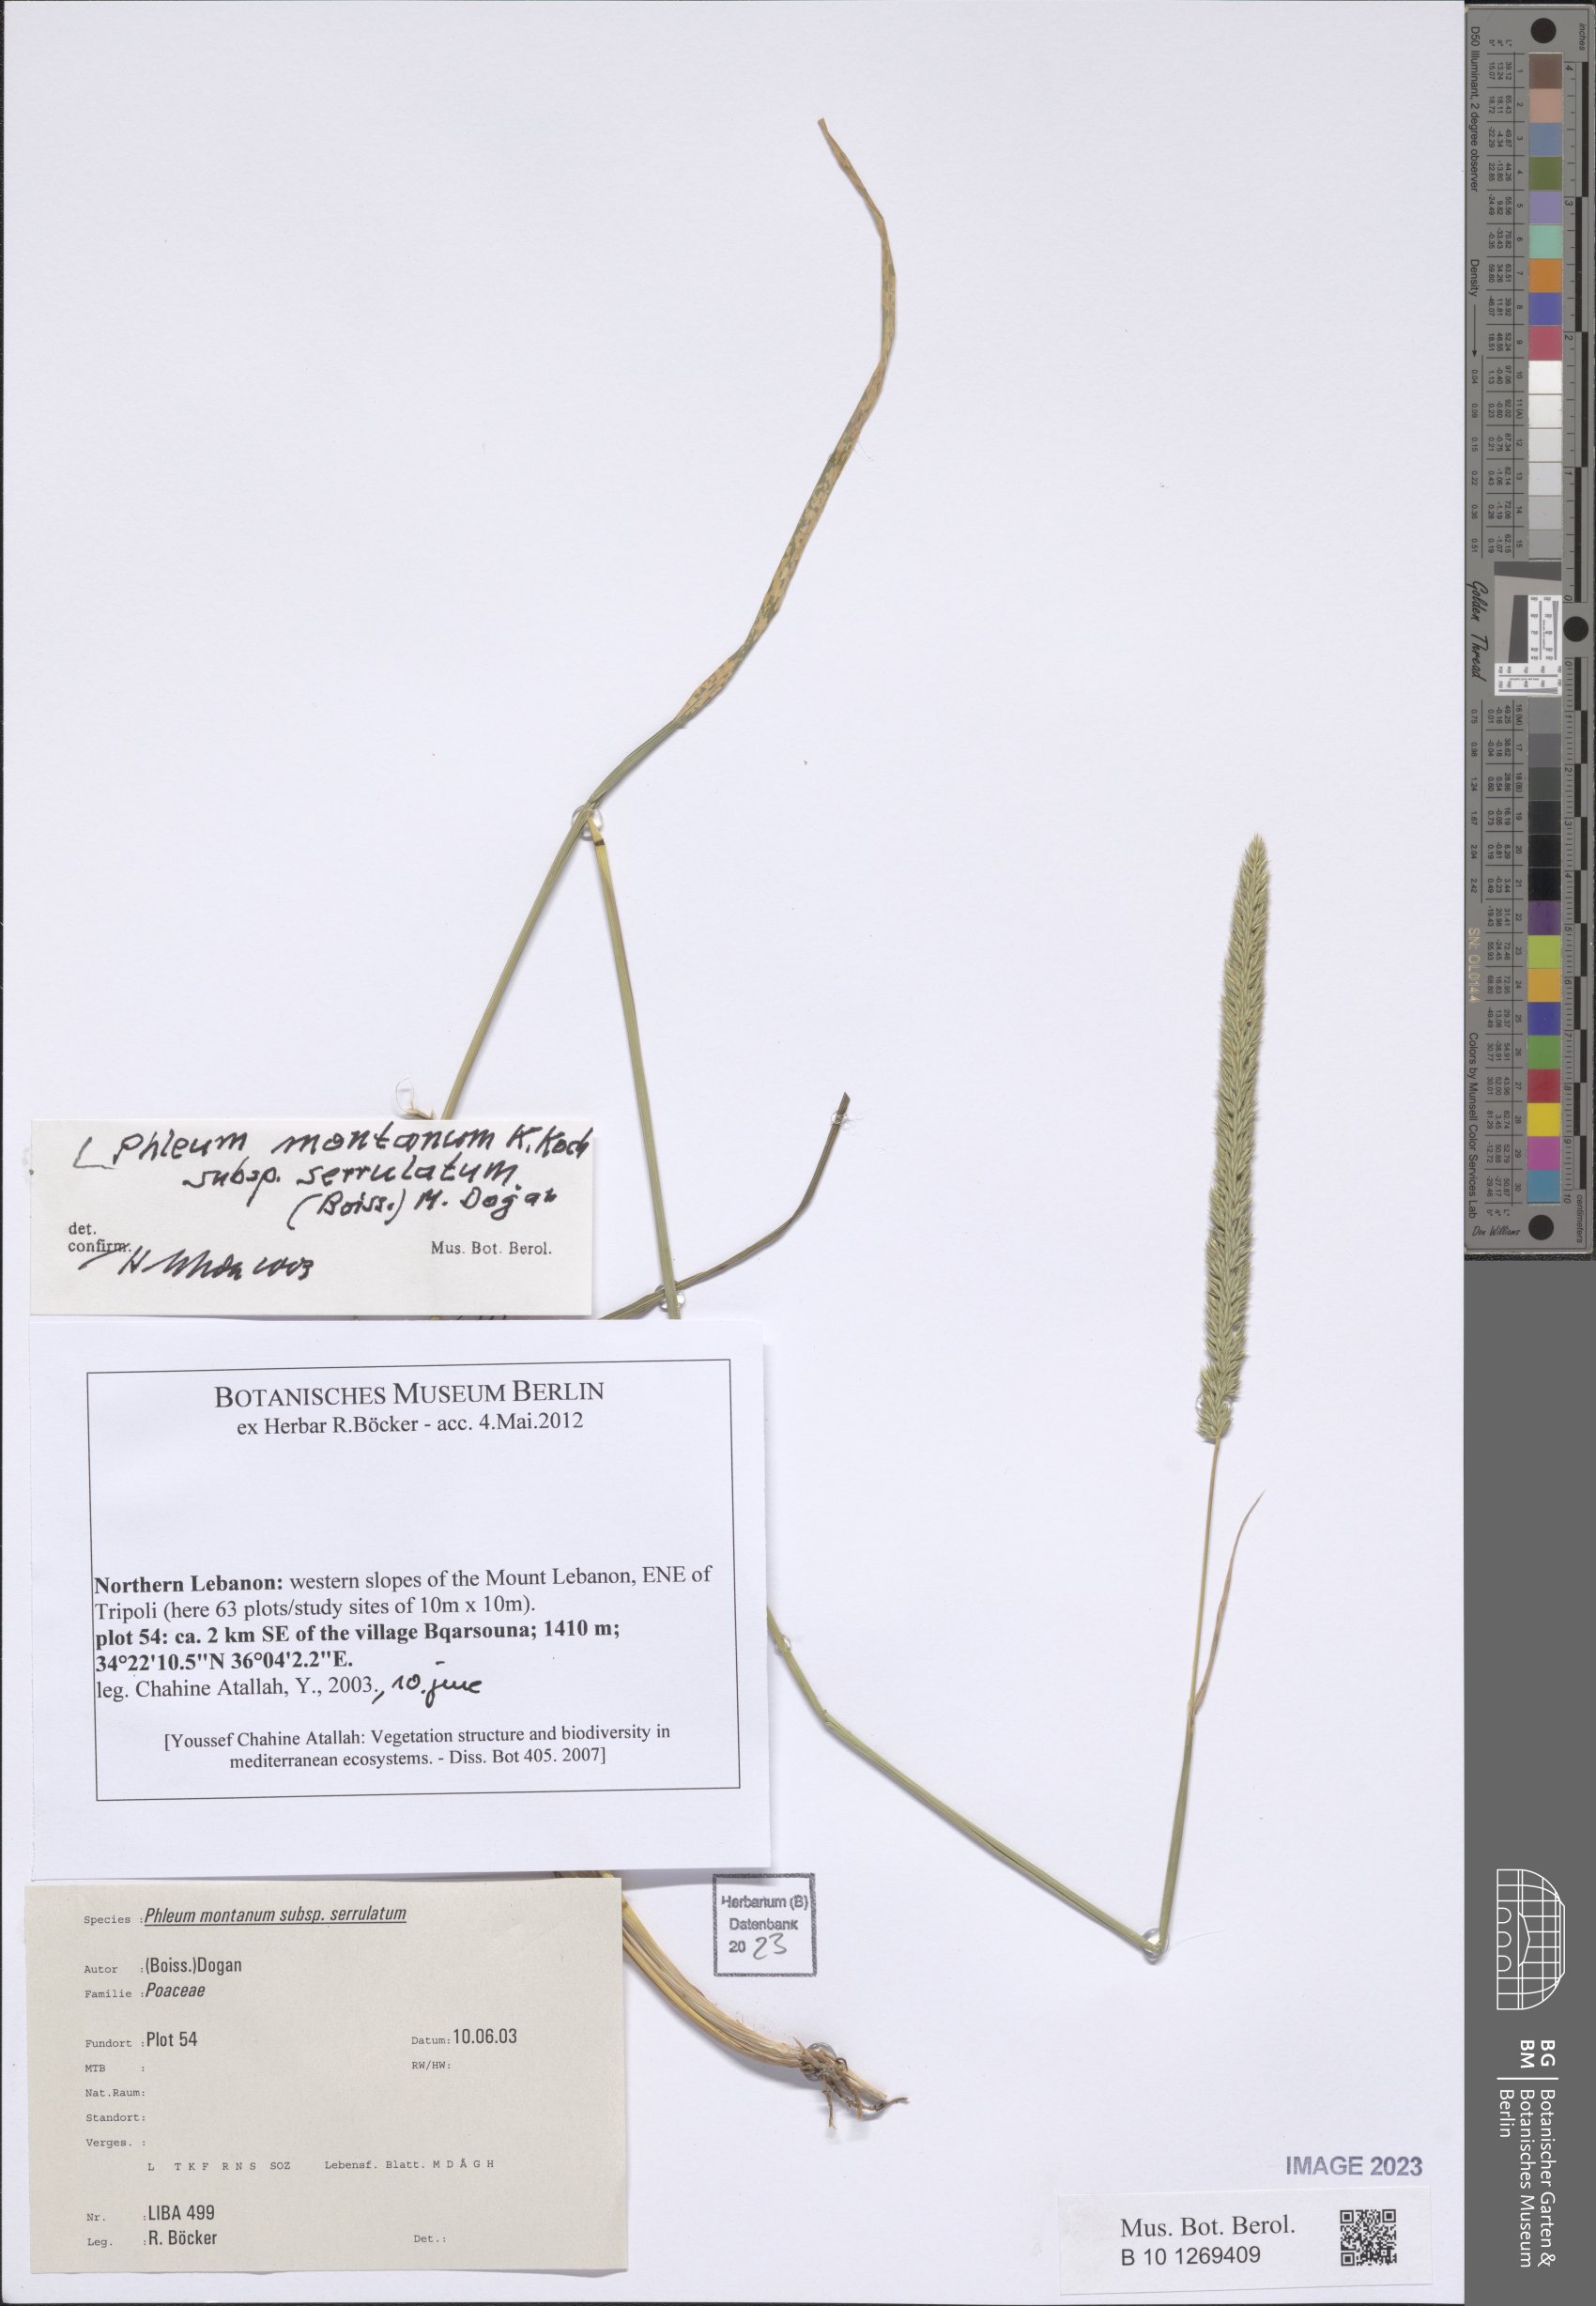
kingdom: Plantae
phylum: Tracheophyta
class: Liliopsida
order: Poales
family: Poaceae
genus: Phleum
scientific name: Phleum montanum
